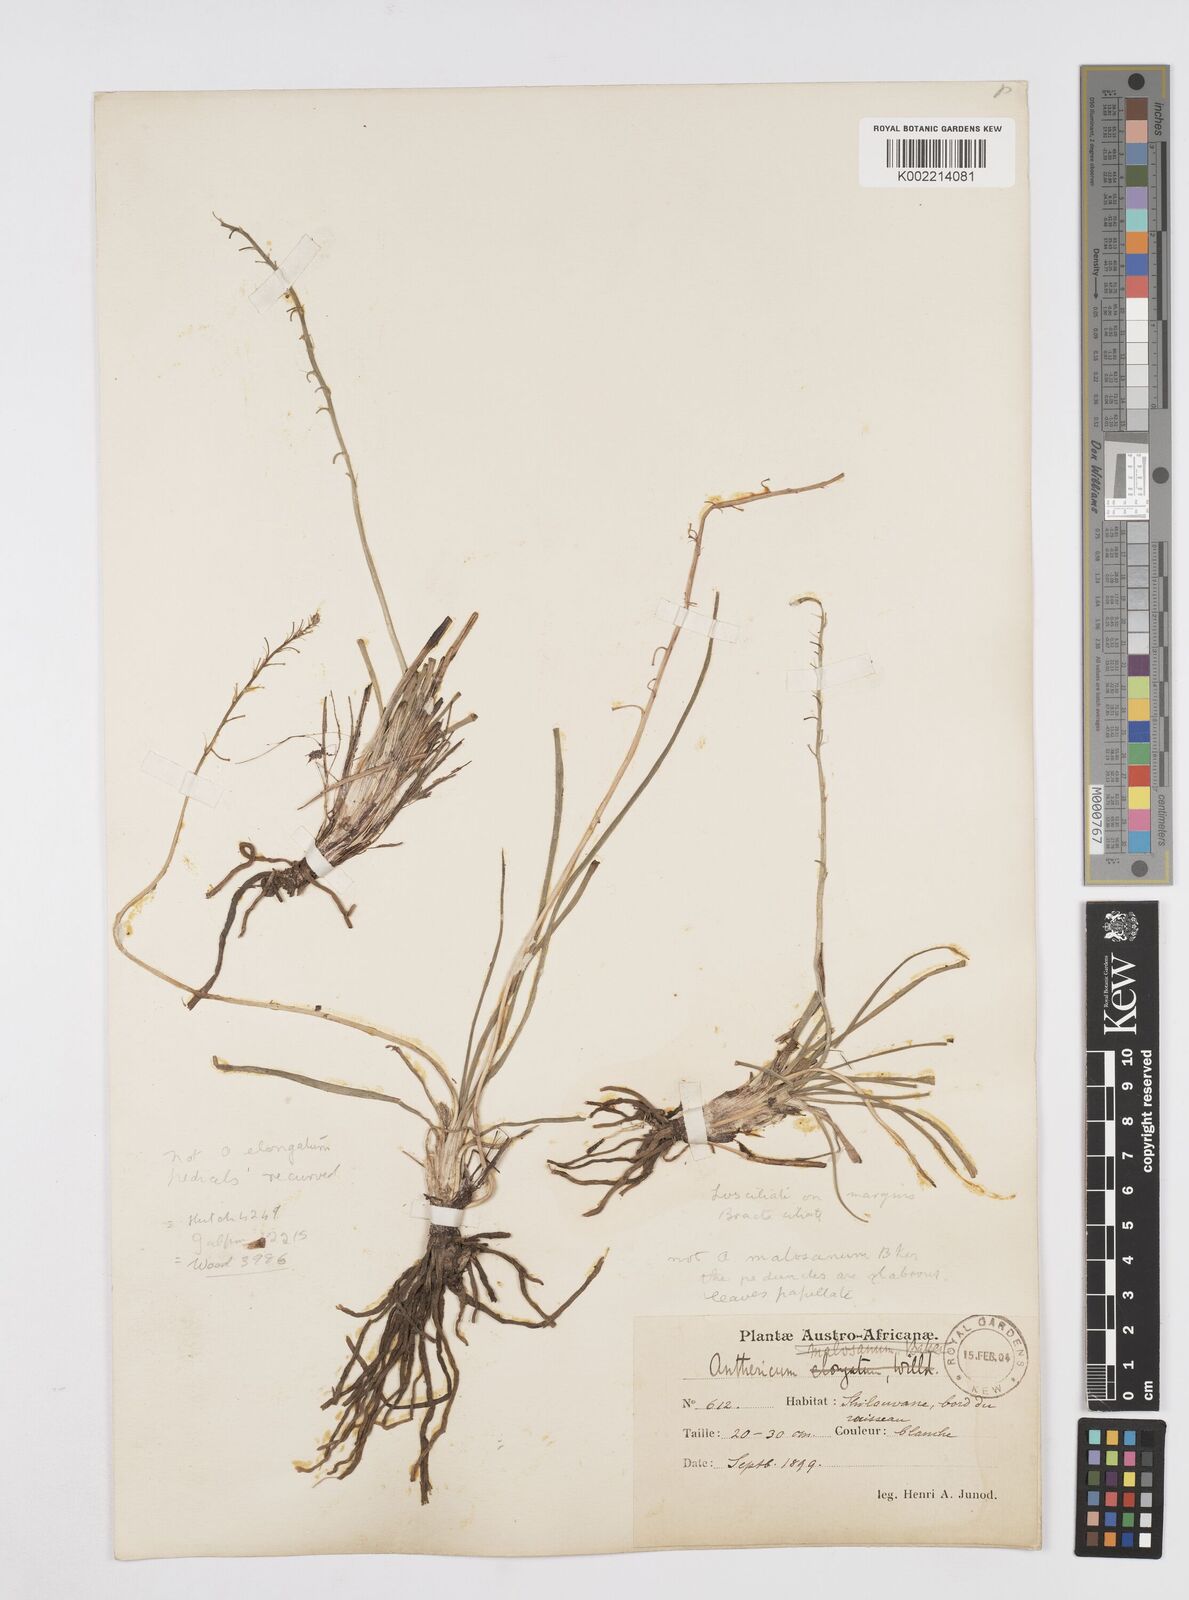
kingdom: Plantae
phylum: Tracheophyta
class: Liliopsida
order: Asparagales
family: Asphodelaceae
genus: Trachyandra
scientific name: Trachyandra
